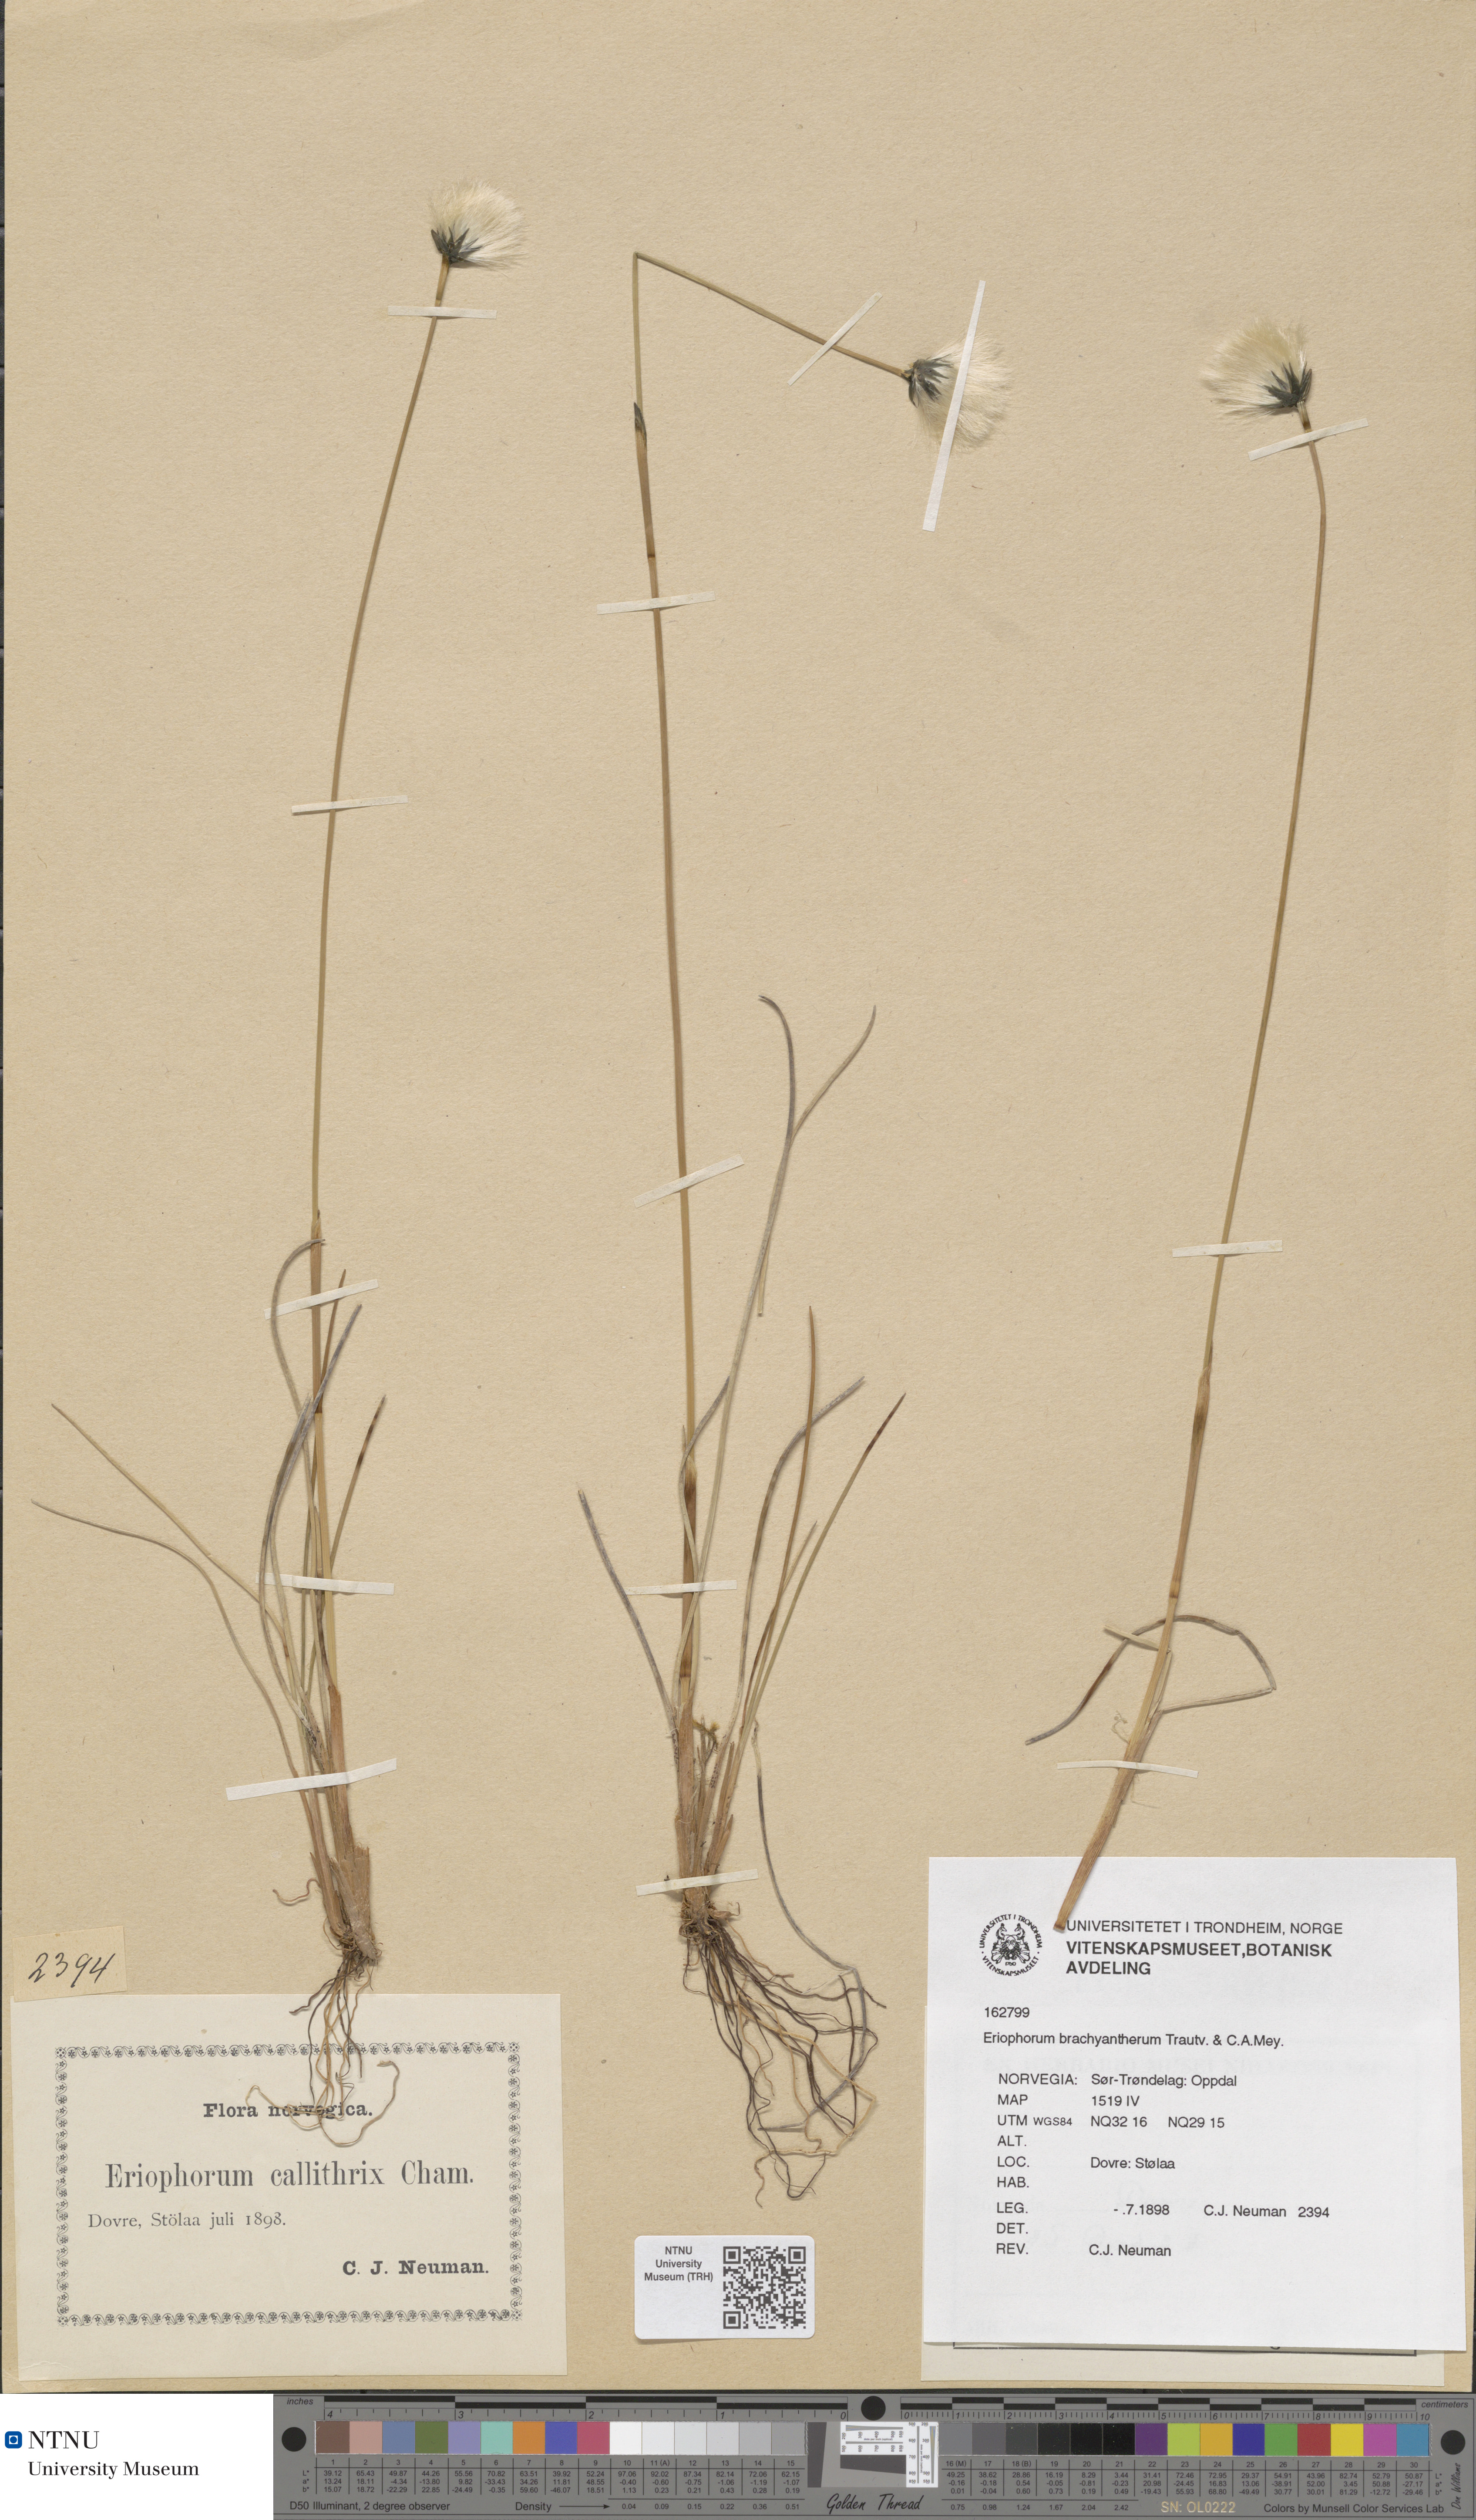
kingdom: Plantae
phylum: Tracheophyta
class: Liliopsida
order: Poales
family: Cyperaceae
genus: Eriophorum
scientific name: Eriophorum brachyantherum
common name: Closed-sheathed cottongrass
